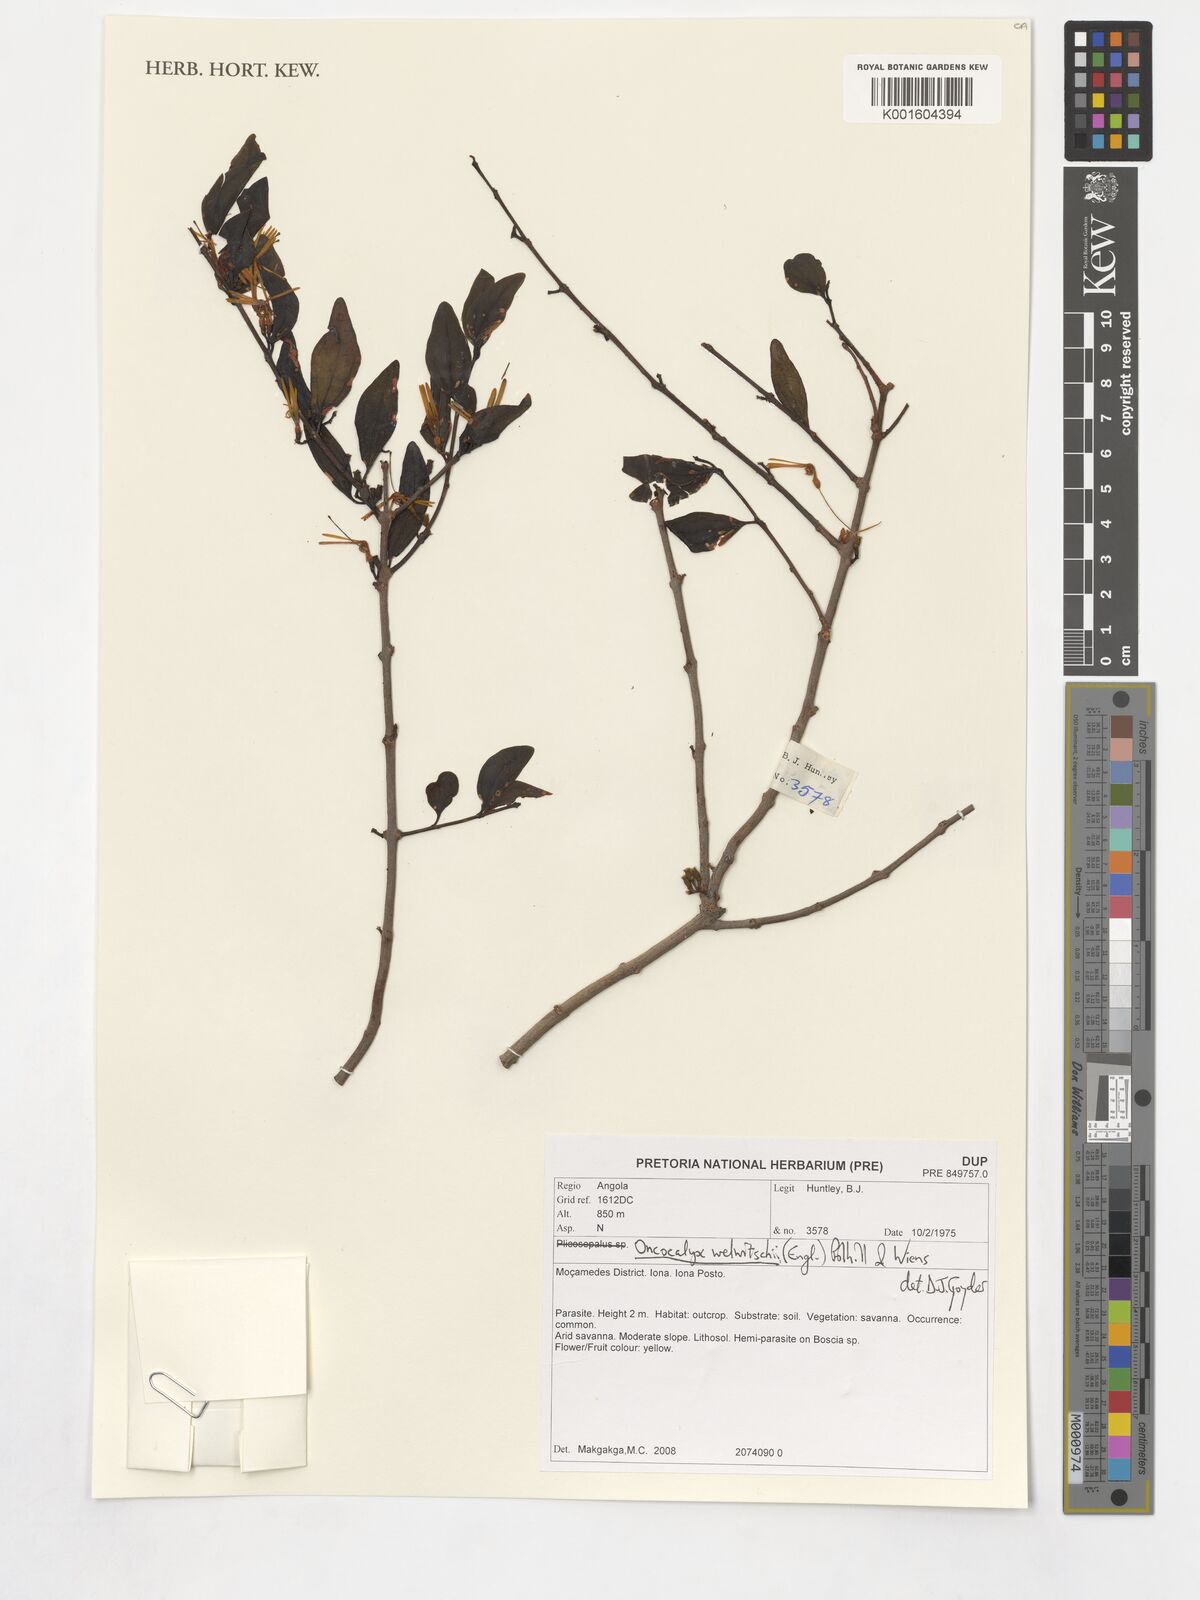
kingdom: Plantae
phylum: Tracheophyta
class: Magnoliopsida
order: Santalales
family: Loranthaceae
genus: Loranthella
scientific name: Loranthella welwitschii
